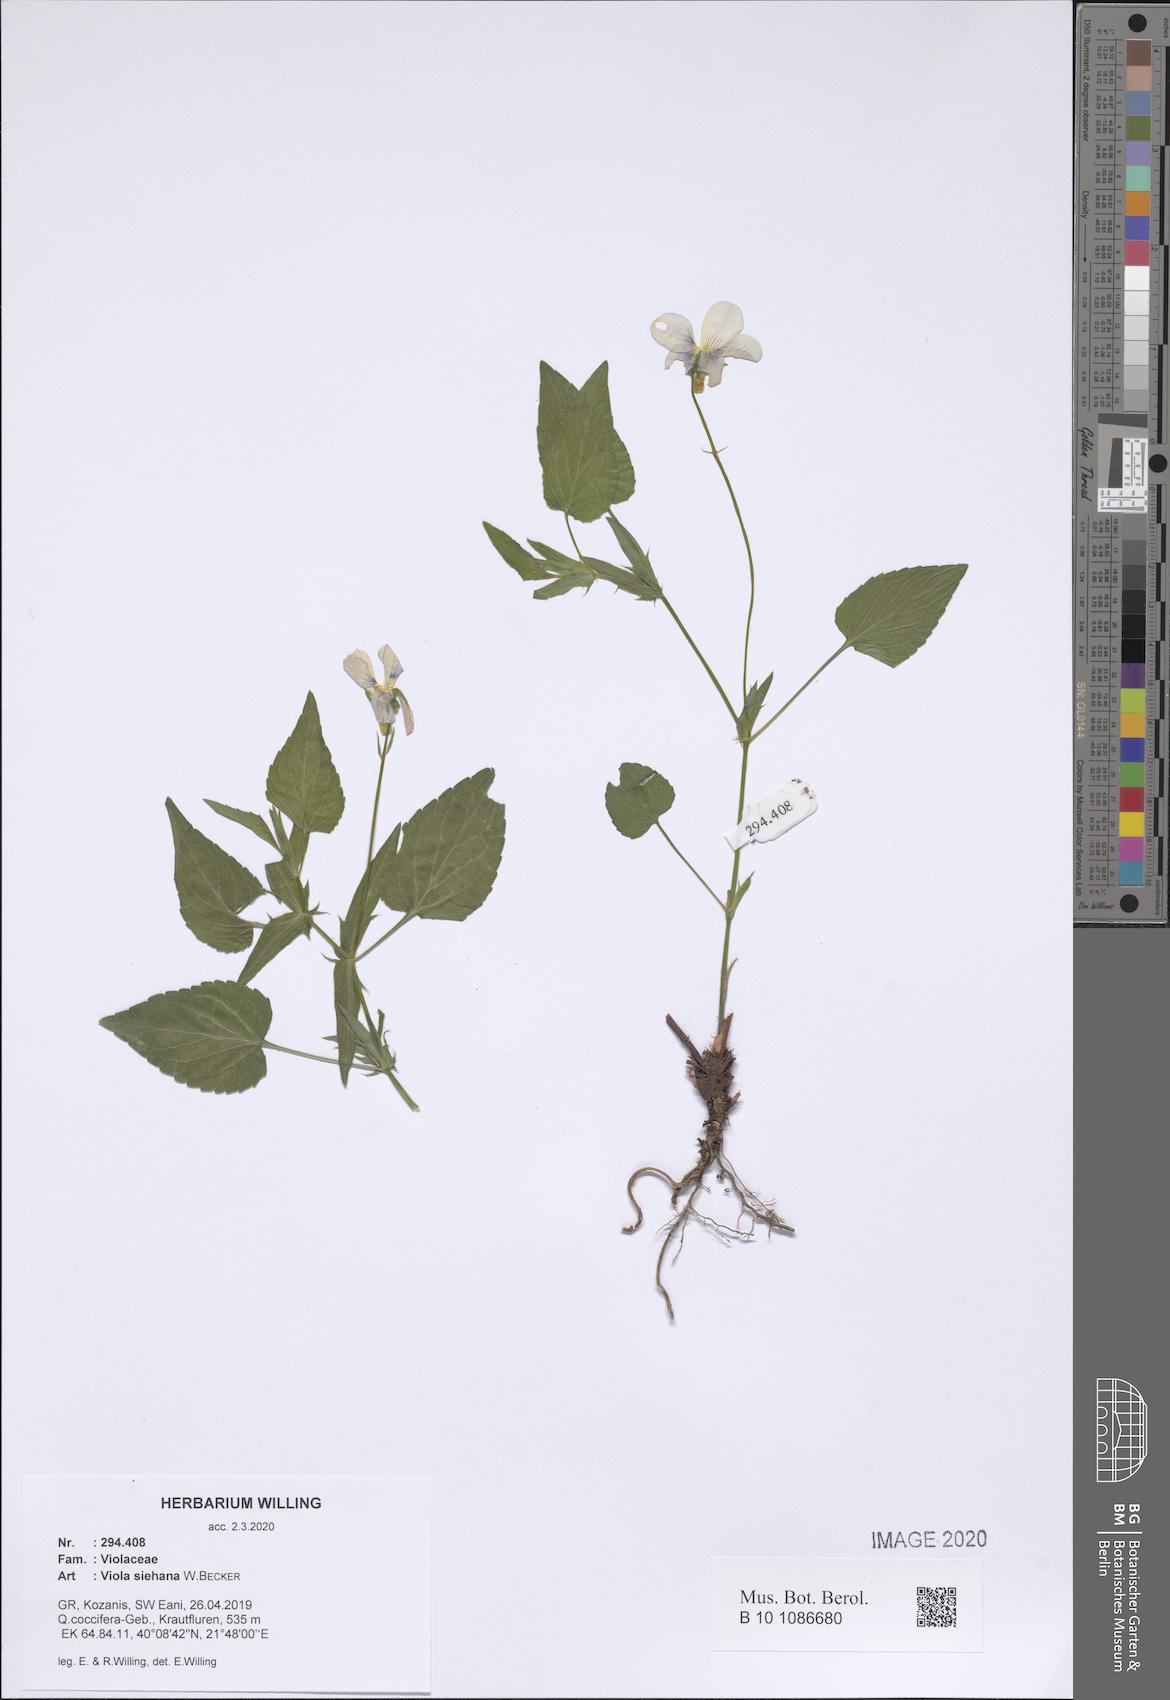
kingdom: Plantae
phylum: Tracheophyta
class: Magnoliopsida
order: Malpighiales
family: Violaceae
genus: Viola
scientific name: Viola sieheana
